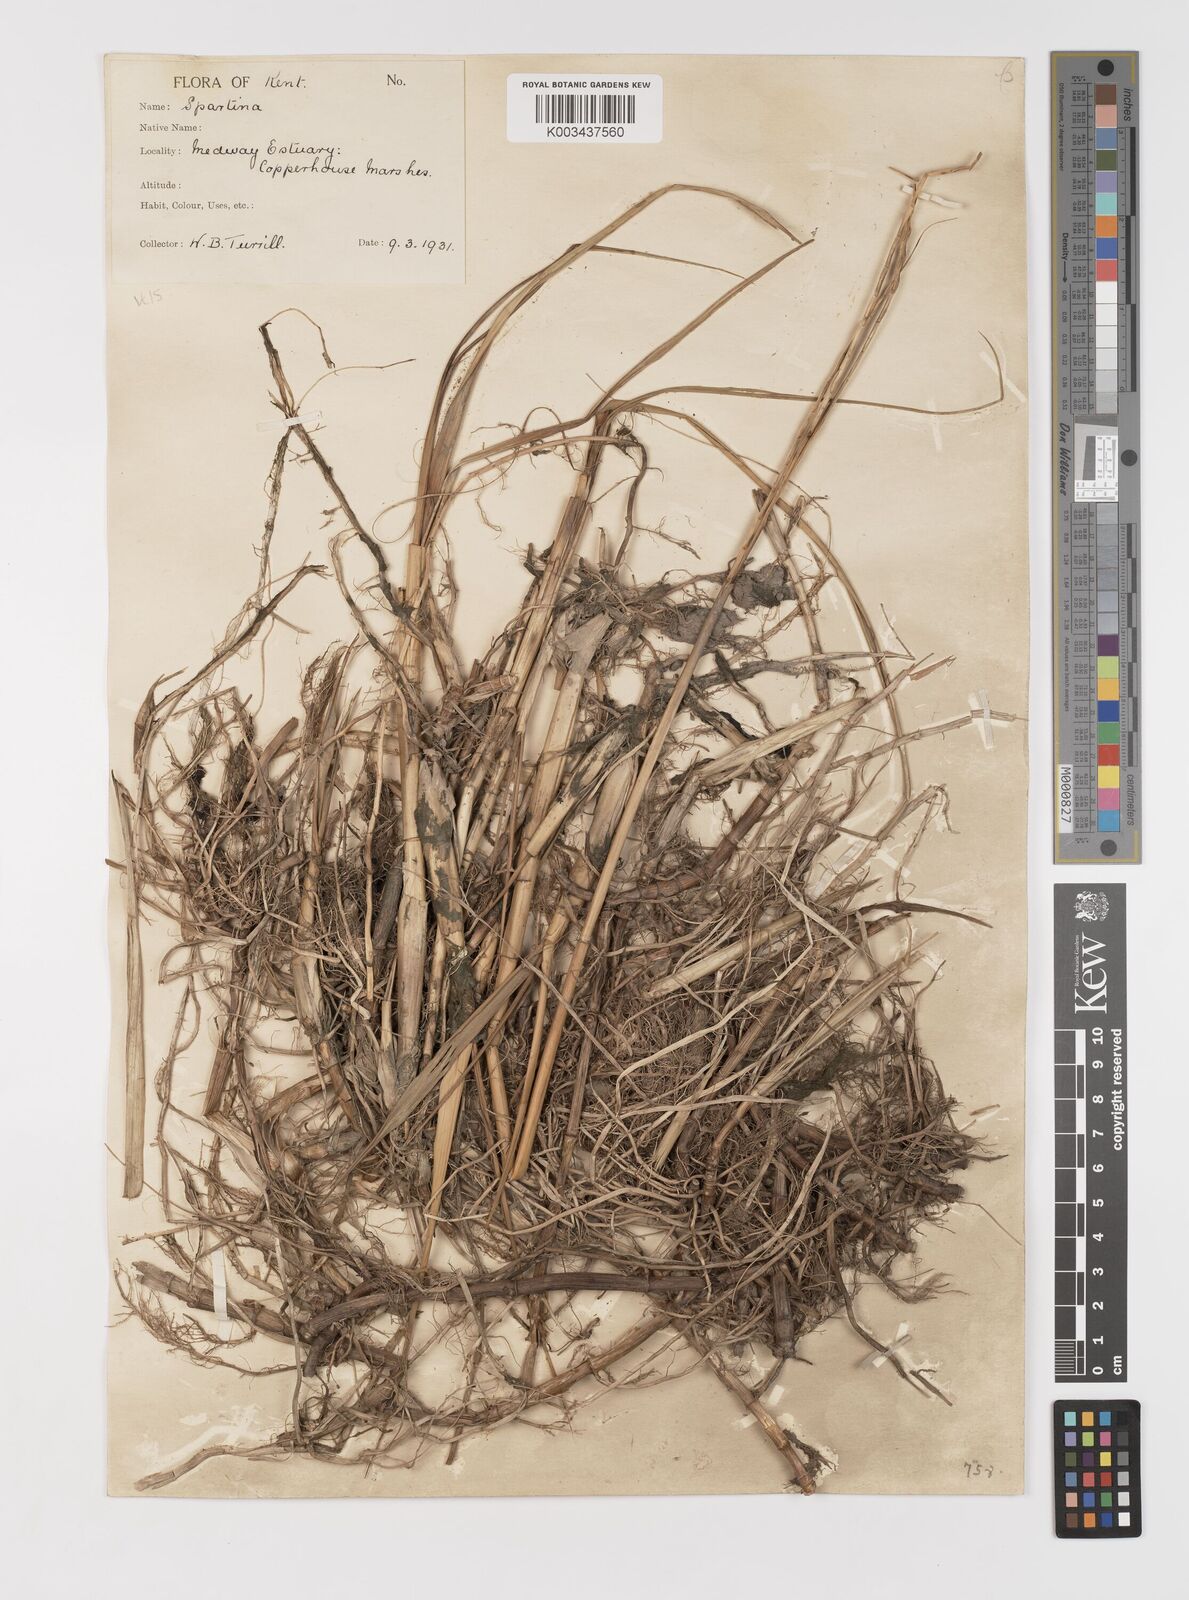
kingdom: Plantae
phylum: Tracheophyta
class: Liliopsida
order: Poales
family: Poaceae
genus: Sporobolus
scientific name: Sporobolus anglicus
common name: English cordgrass
